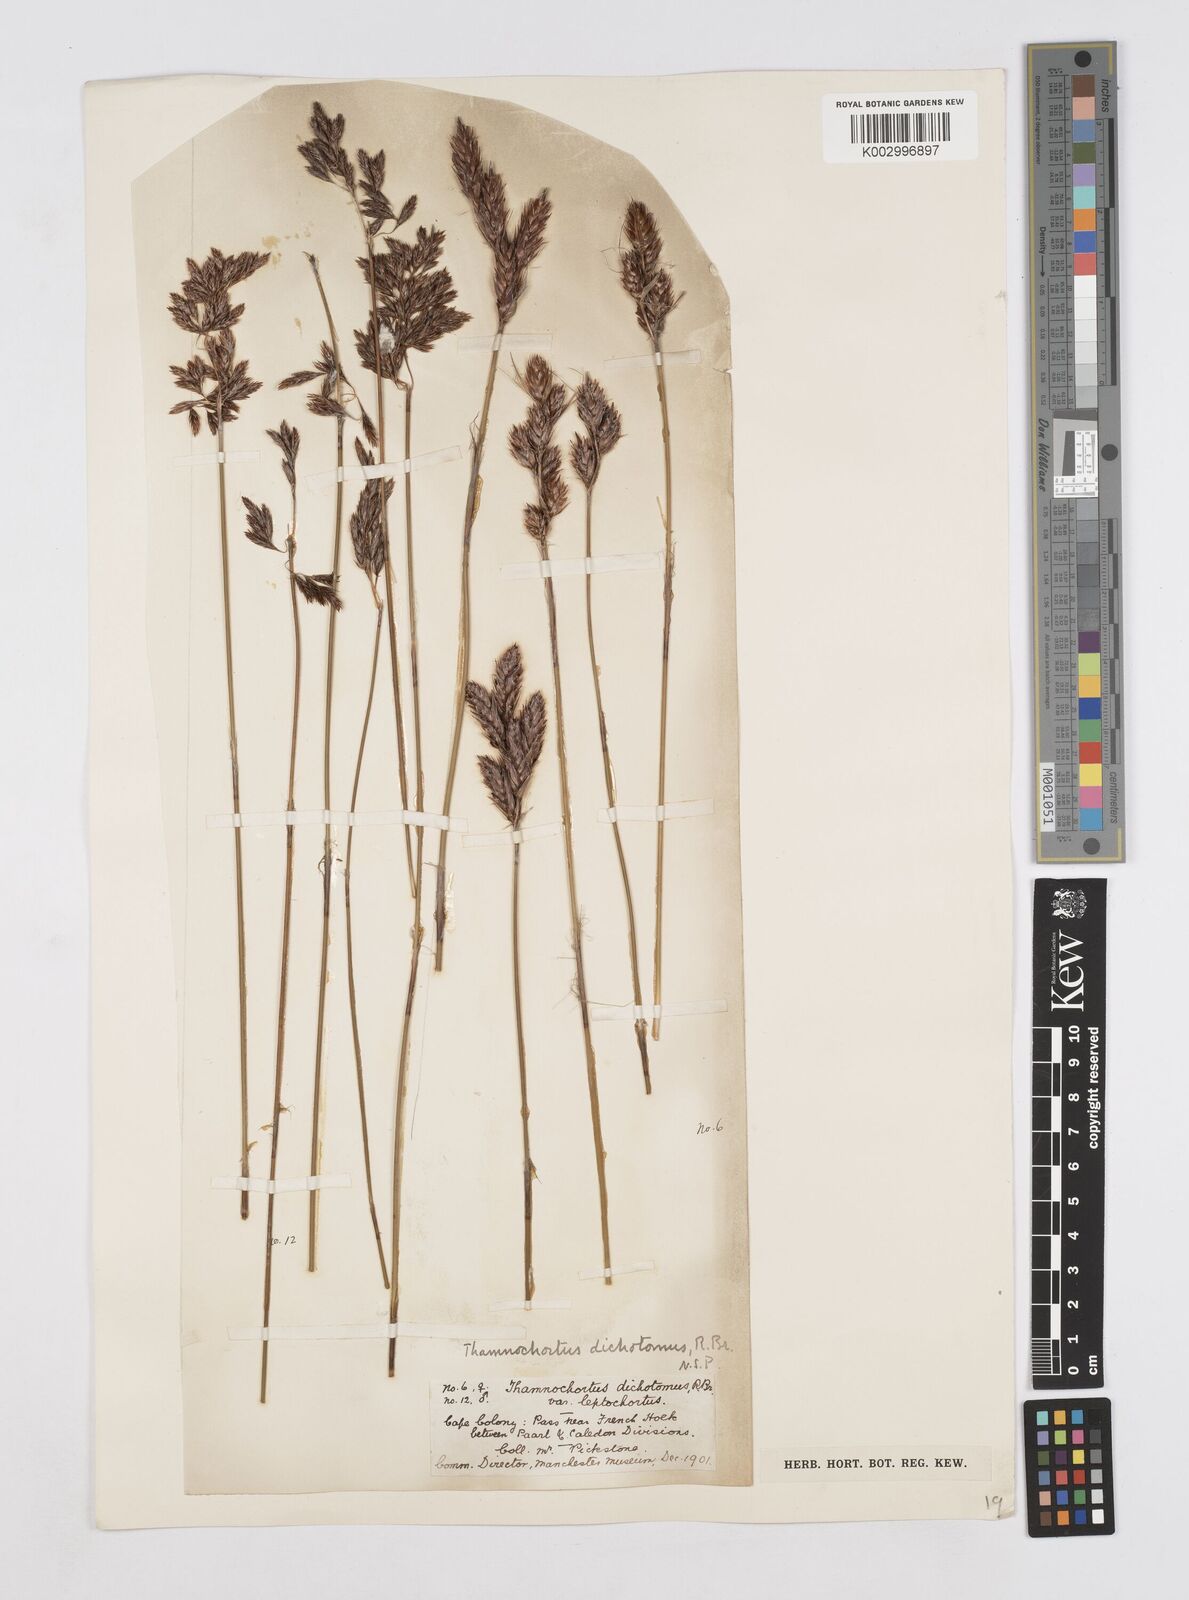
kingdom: Plantae
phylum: Tracheophyta
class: Liliopsida
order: Poales
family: Restionaceae
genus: Thamnochortus
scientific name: Thamnochortus lucens
